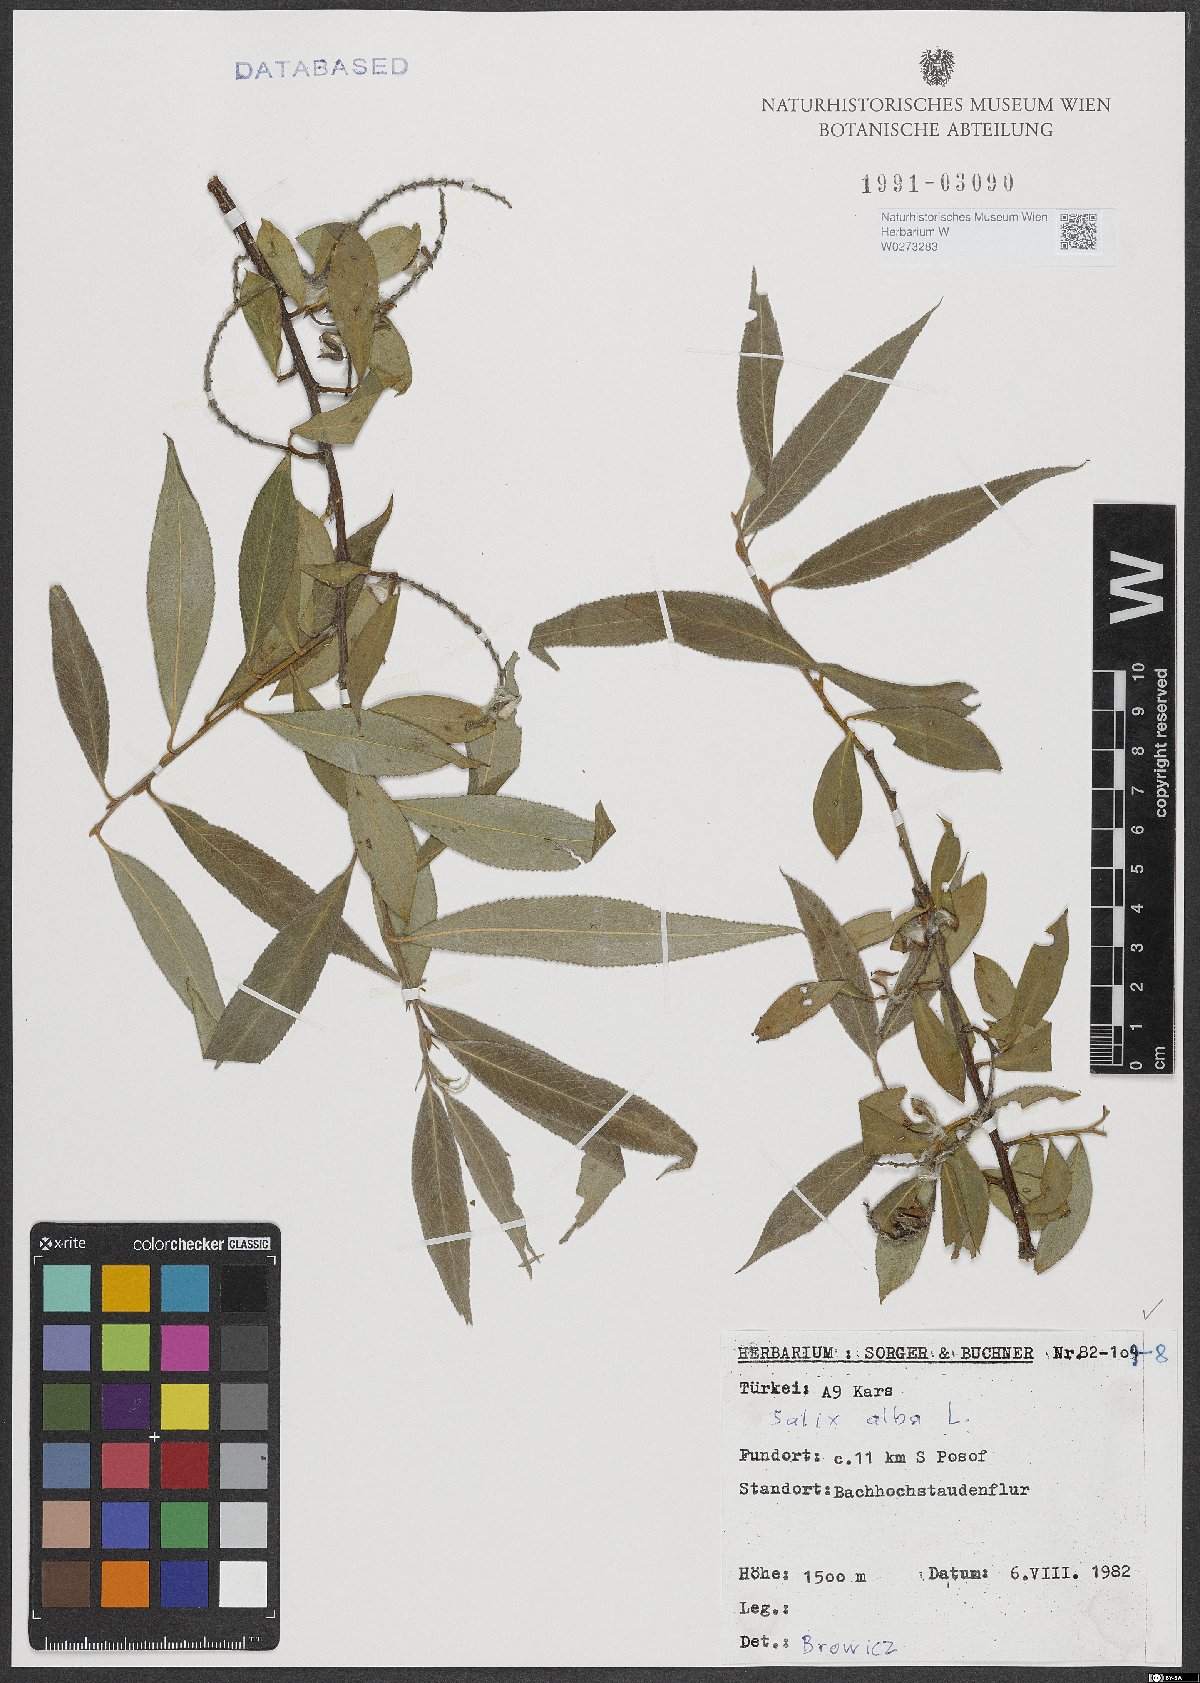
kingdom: Plantae
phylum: Tracheophyta
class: Magnoliopsida
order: Malpighiales
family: Salicaceae
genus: Salix
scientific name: Salix alba
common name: White willow
